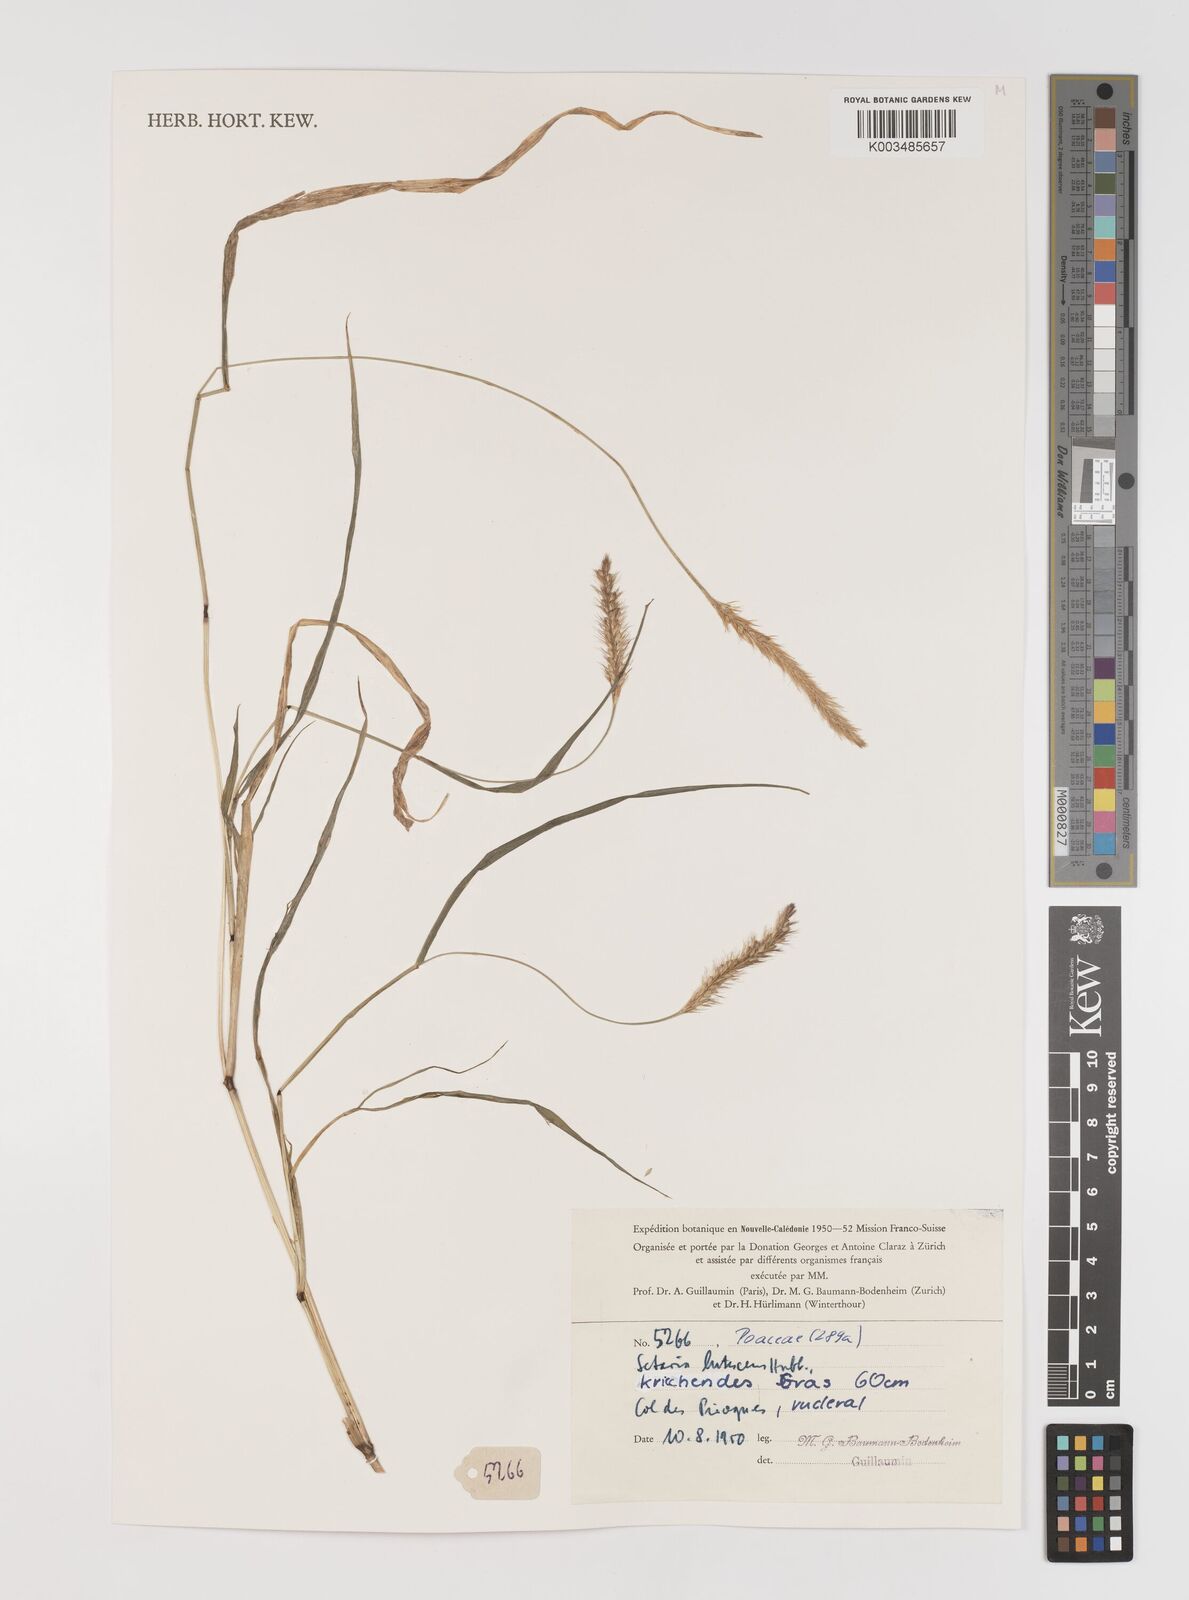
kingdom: Plantae
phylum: Tracheophyta
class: Liliopsida
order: Poales
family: Poaceae
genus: Setaria
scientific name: Setaria parviflora
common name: Knotroot bristle-grass
